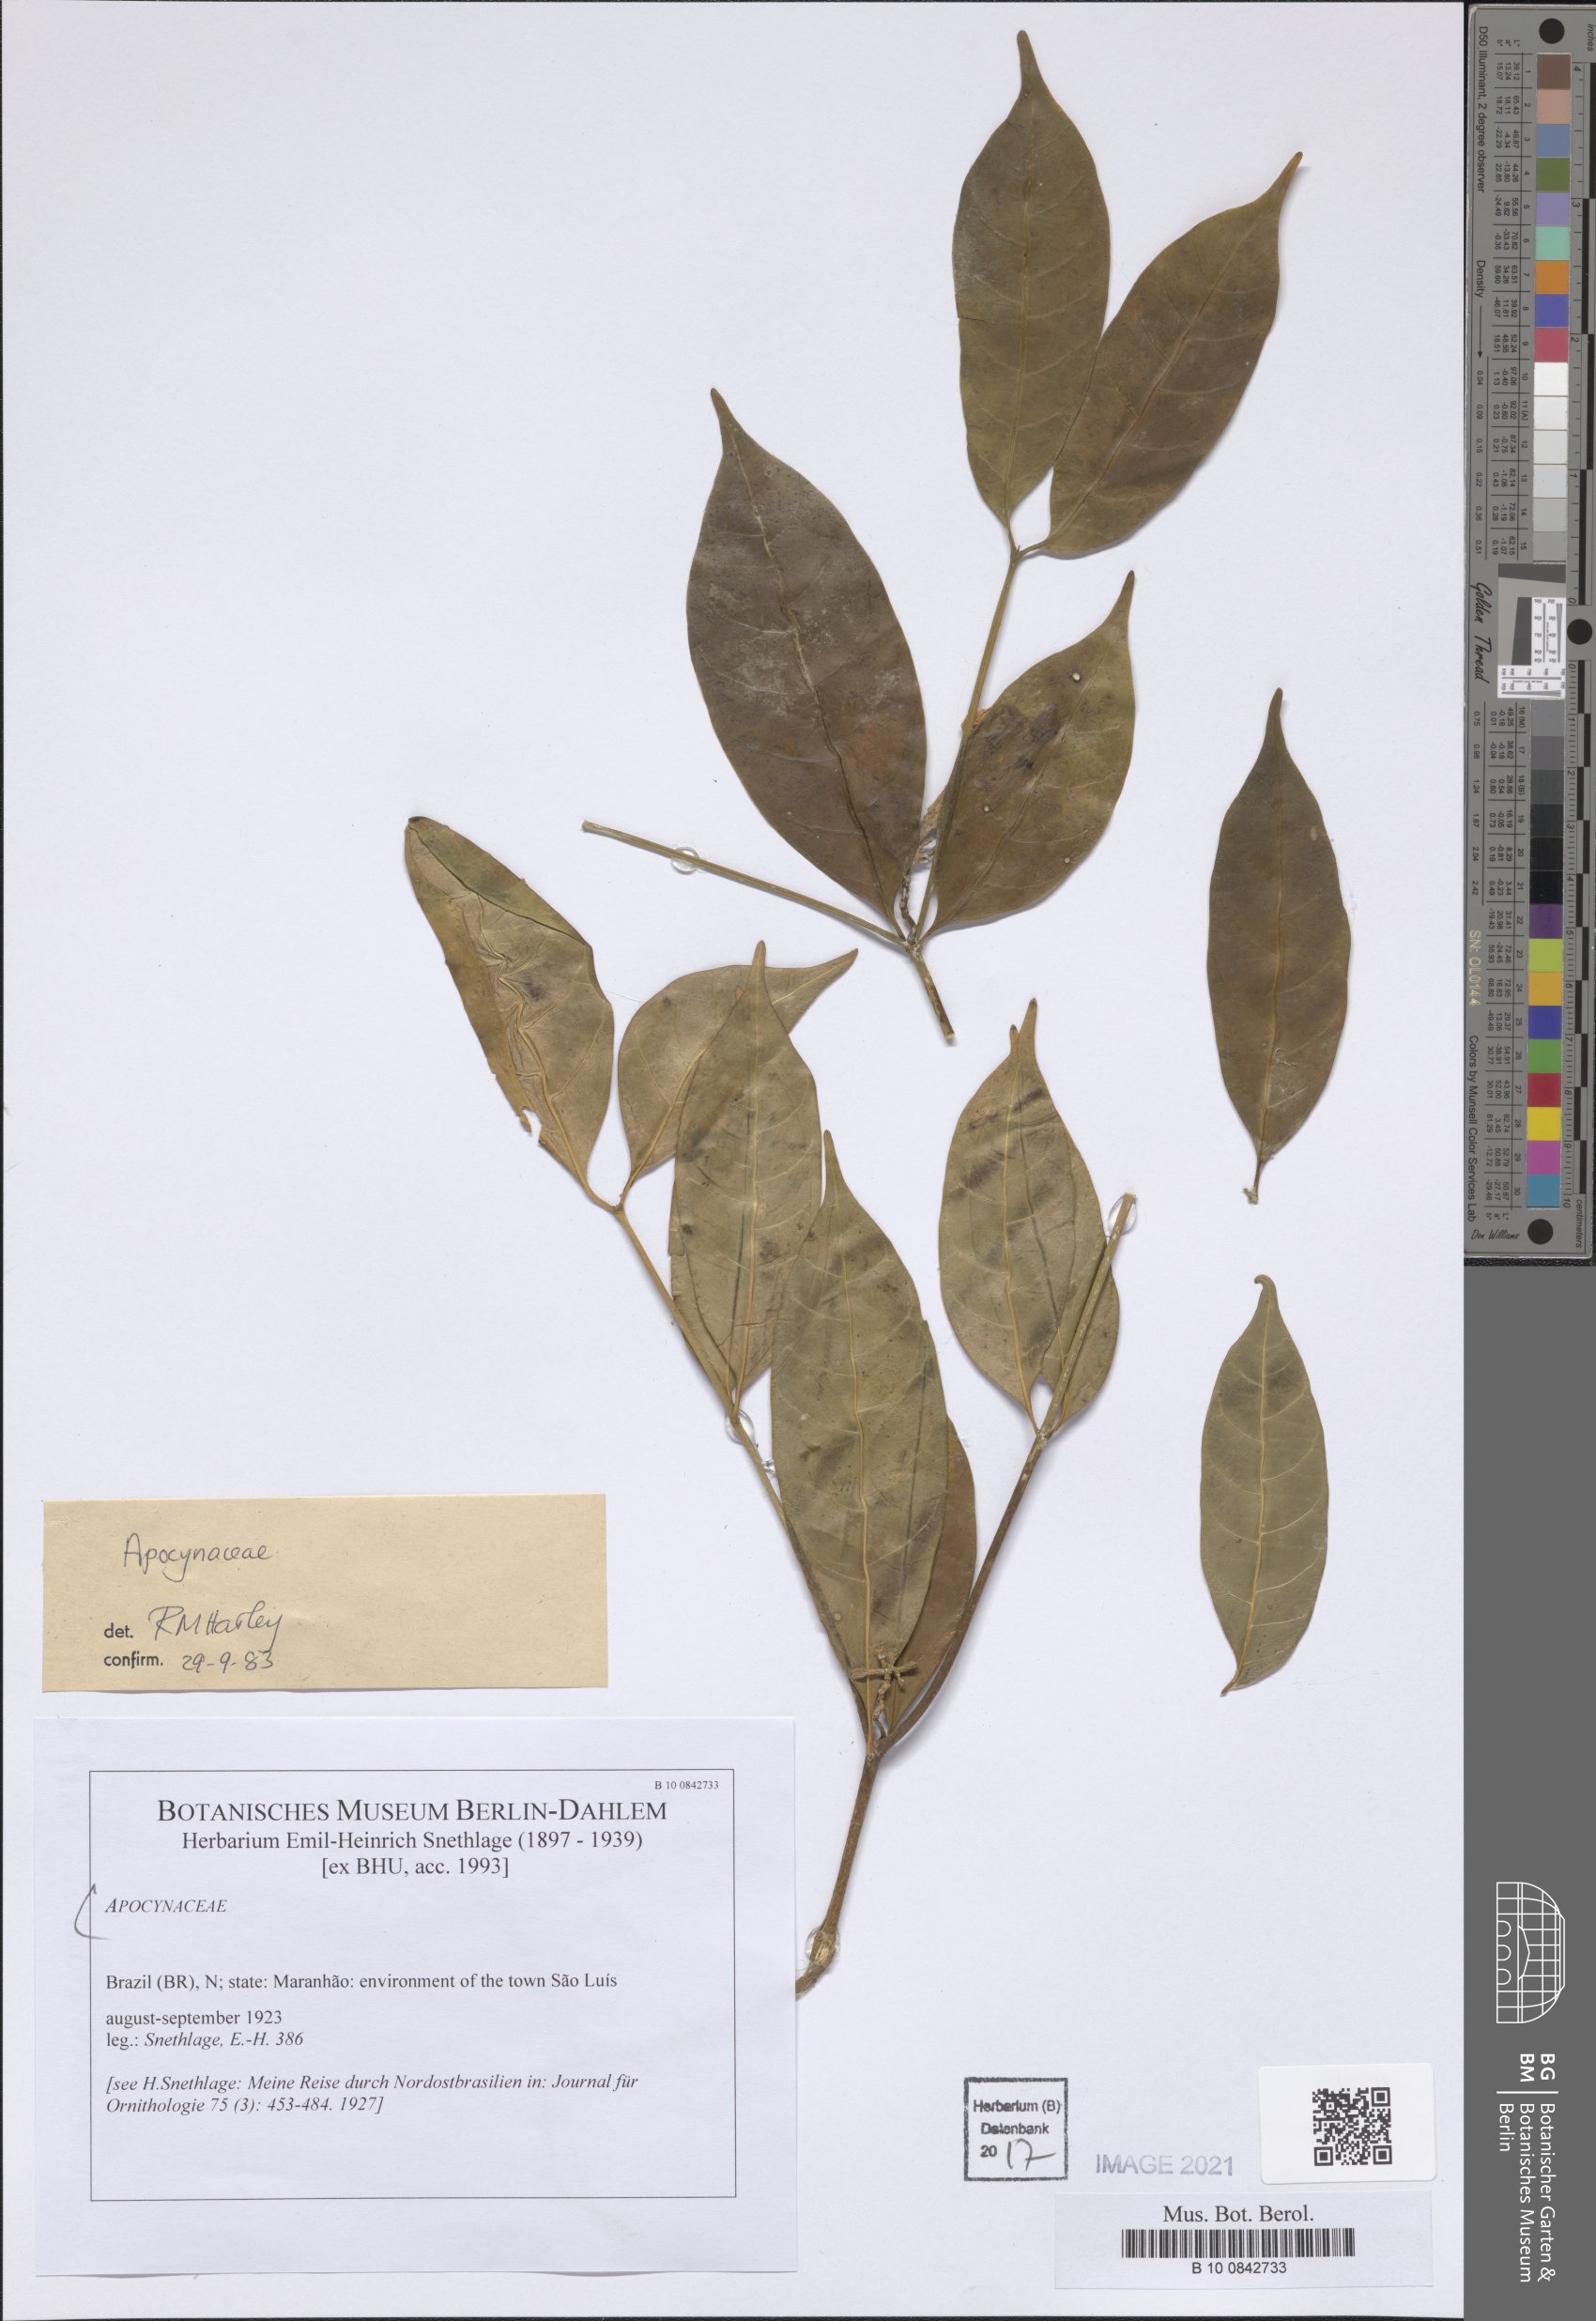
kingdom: Plantae
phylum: Tracheophyta
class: Magnoliopsida
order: Gentianales
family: Apocynaceae
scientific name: Apocynaceae
